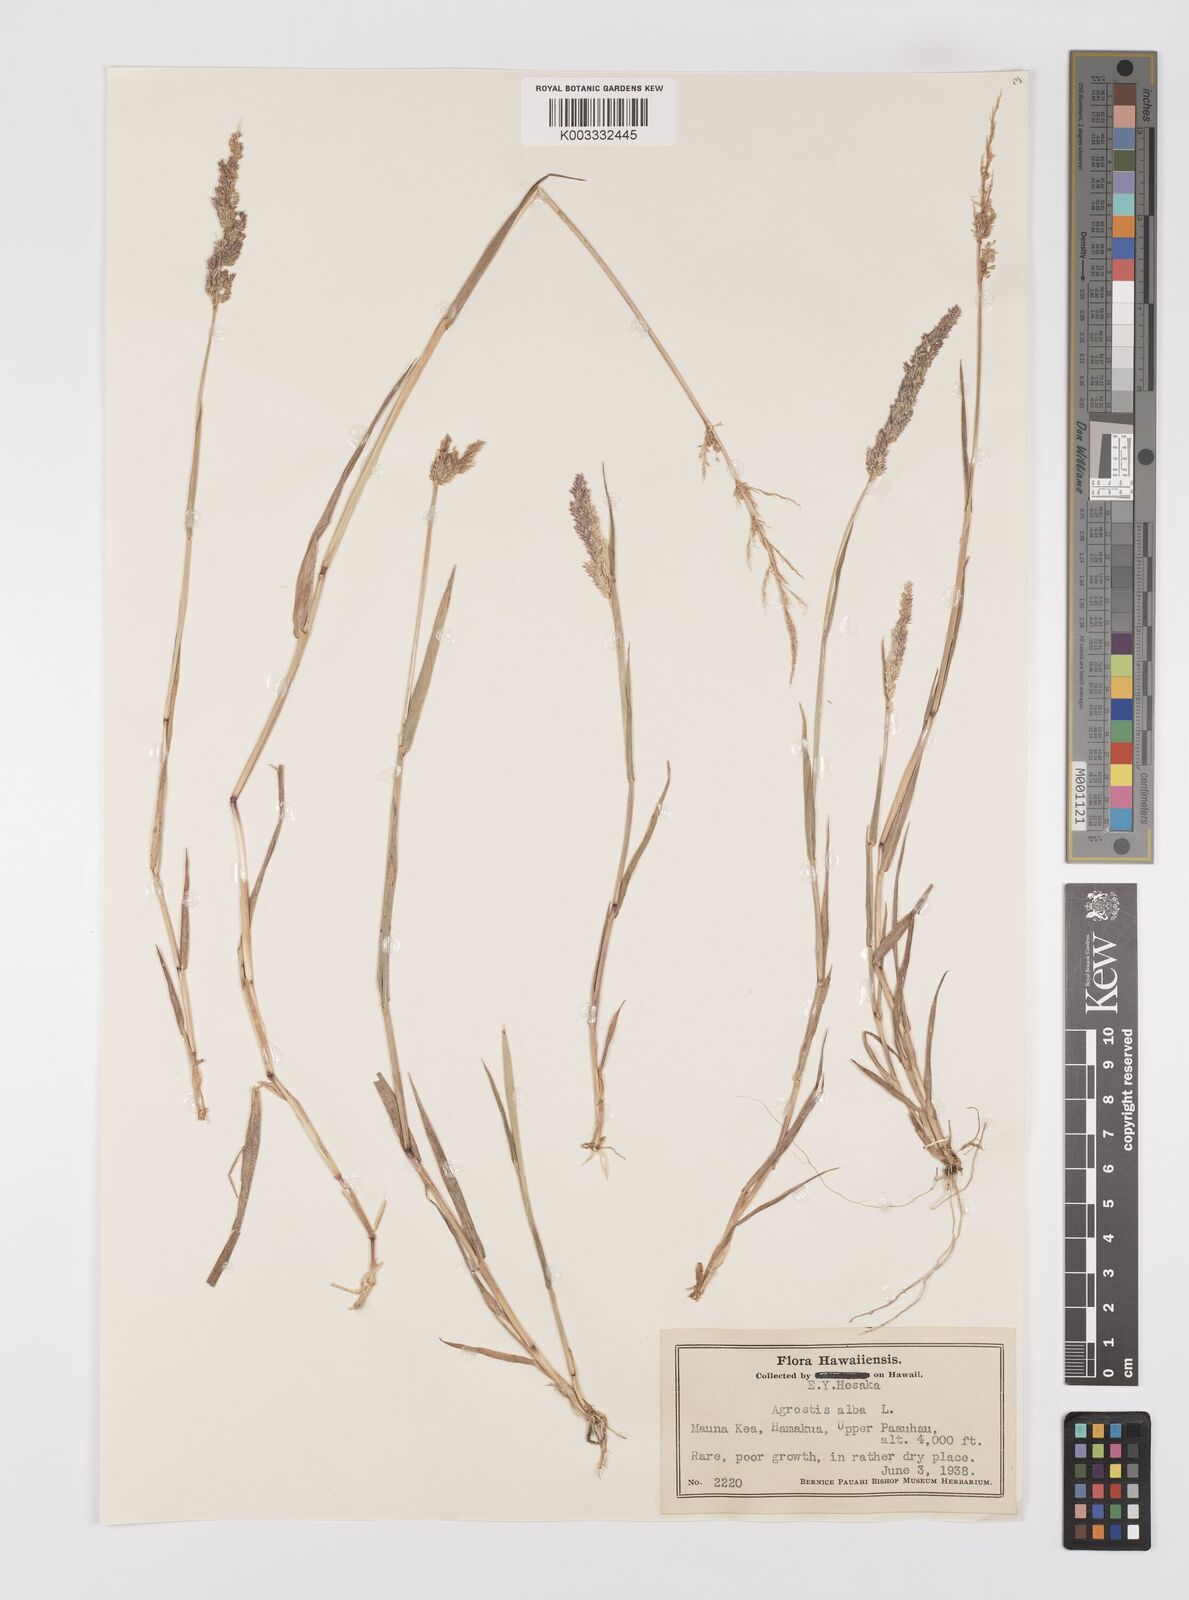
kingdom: Plantae
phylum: Tracheophyta
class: Liliopsida
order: Poales
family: Poaceae
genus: Polypogon
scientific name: Polypogon viridis
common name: Water bent
